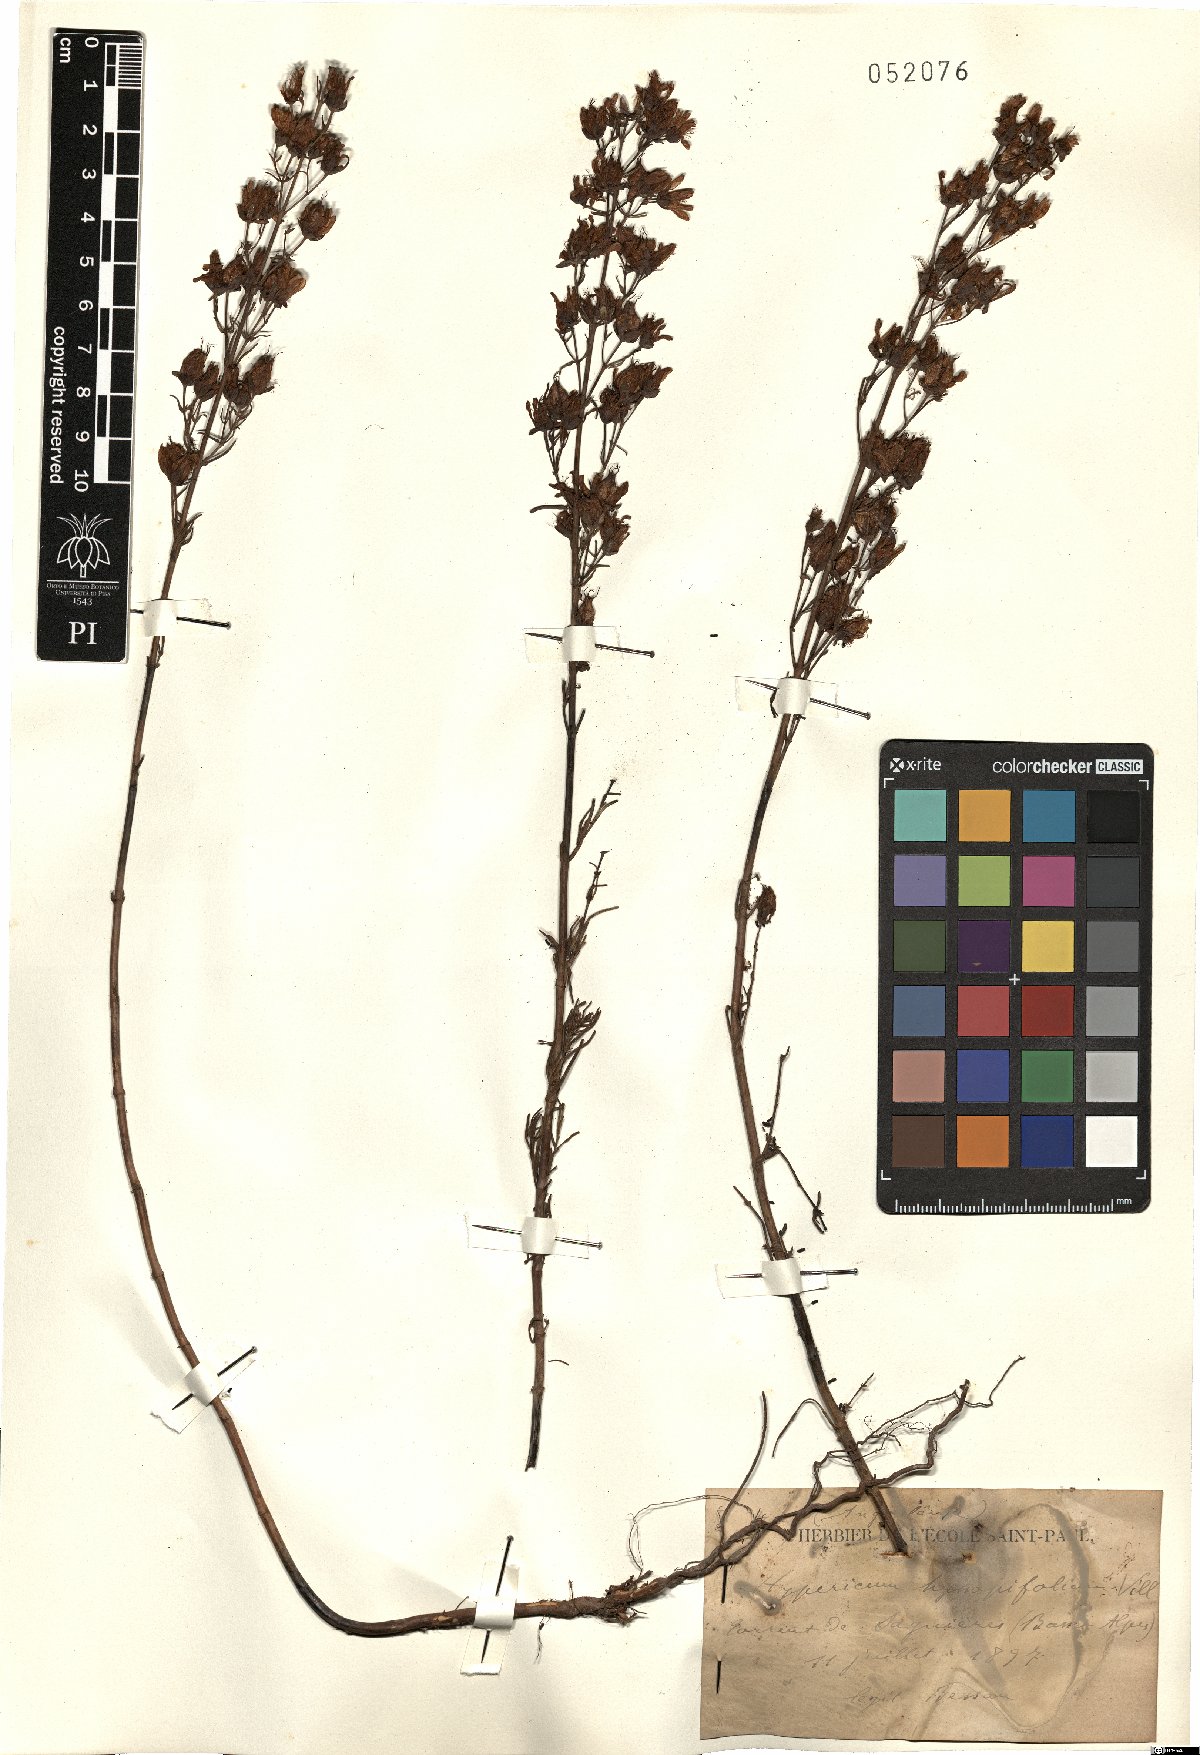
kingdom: Plantae
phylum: Tracheophyta
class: Magnoliopsida
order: Malpighiales
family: Hypericaceae
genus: Hypericum
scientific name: Hypericum hyssopifolium
